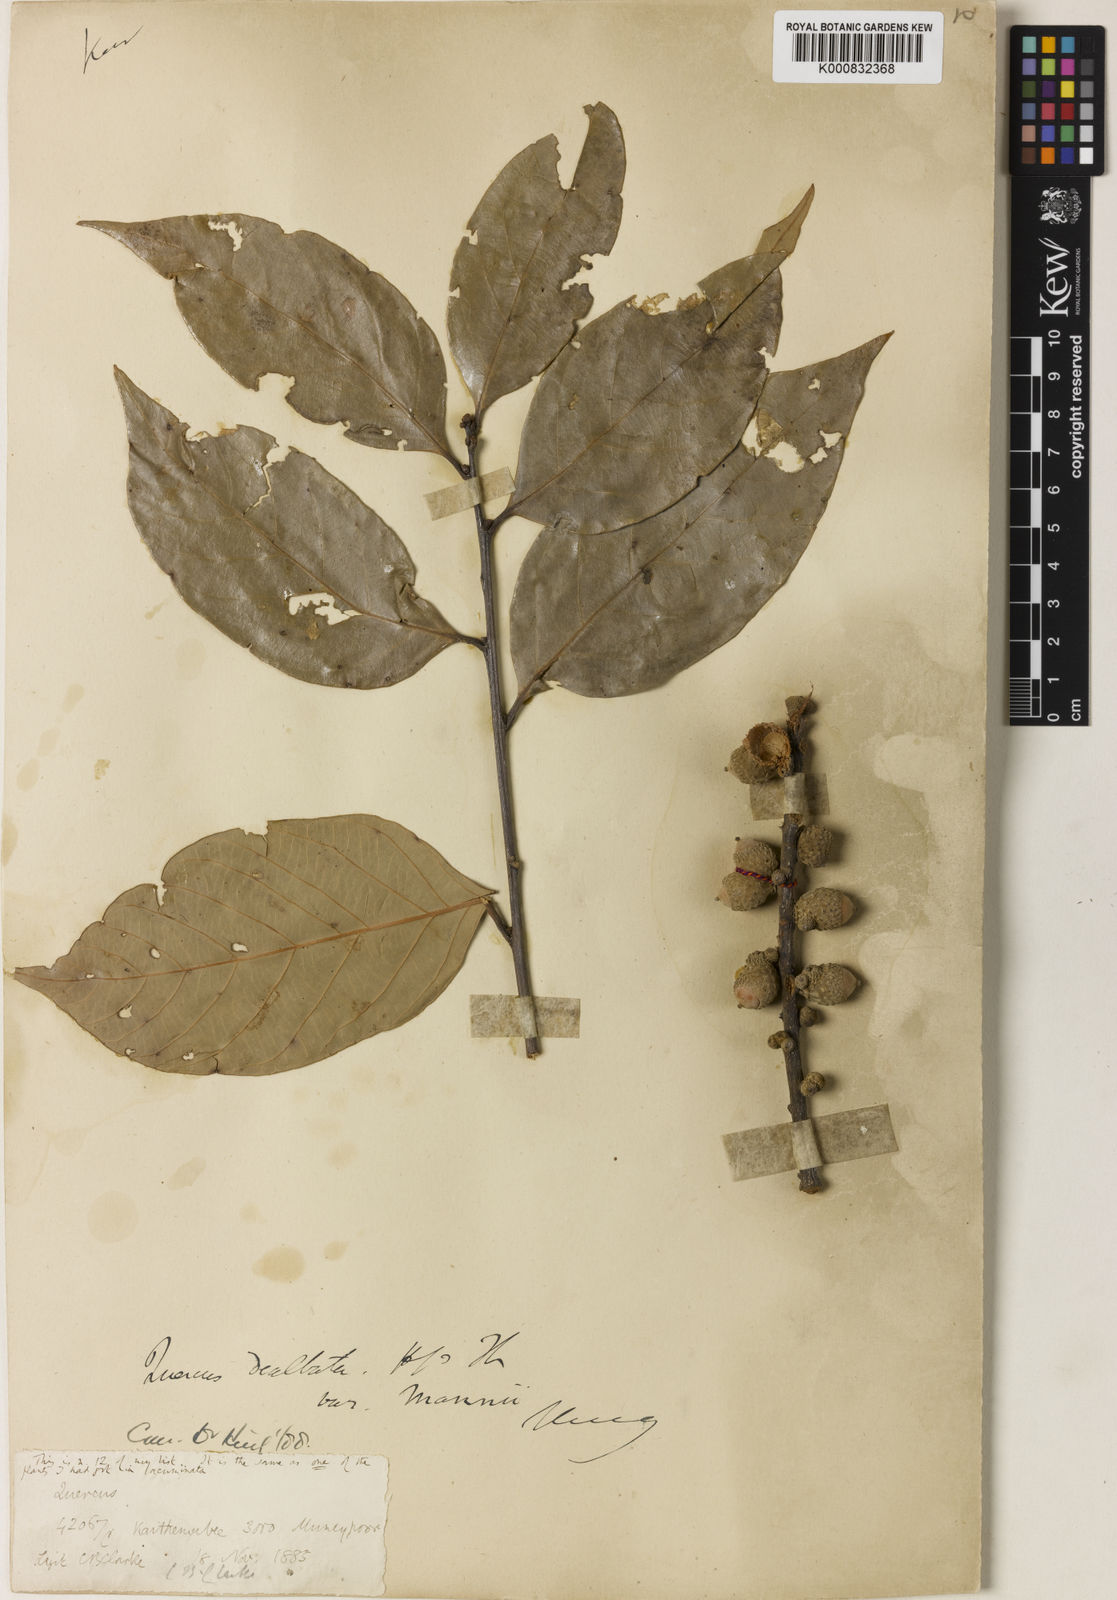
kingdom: Plantae
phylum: Tracheophyta
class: Magnoliopsida
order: Fagales
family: Fagaceae
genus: Lithocarpus
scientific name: Lithocarpus dealbatus
